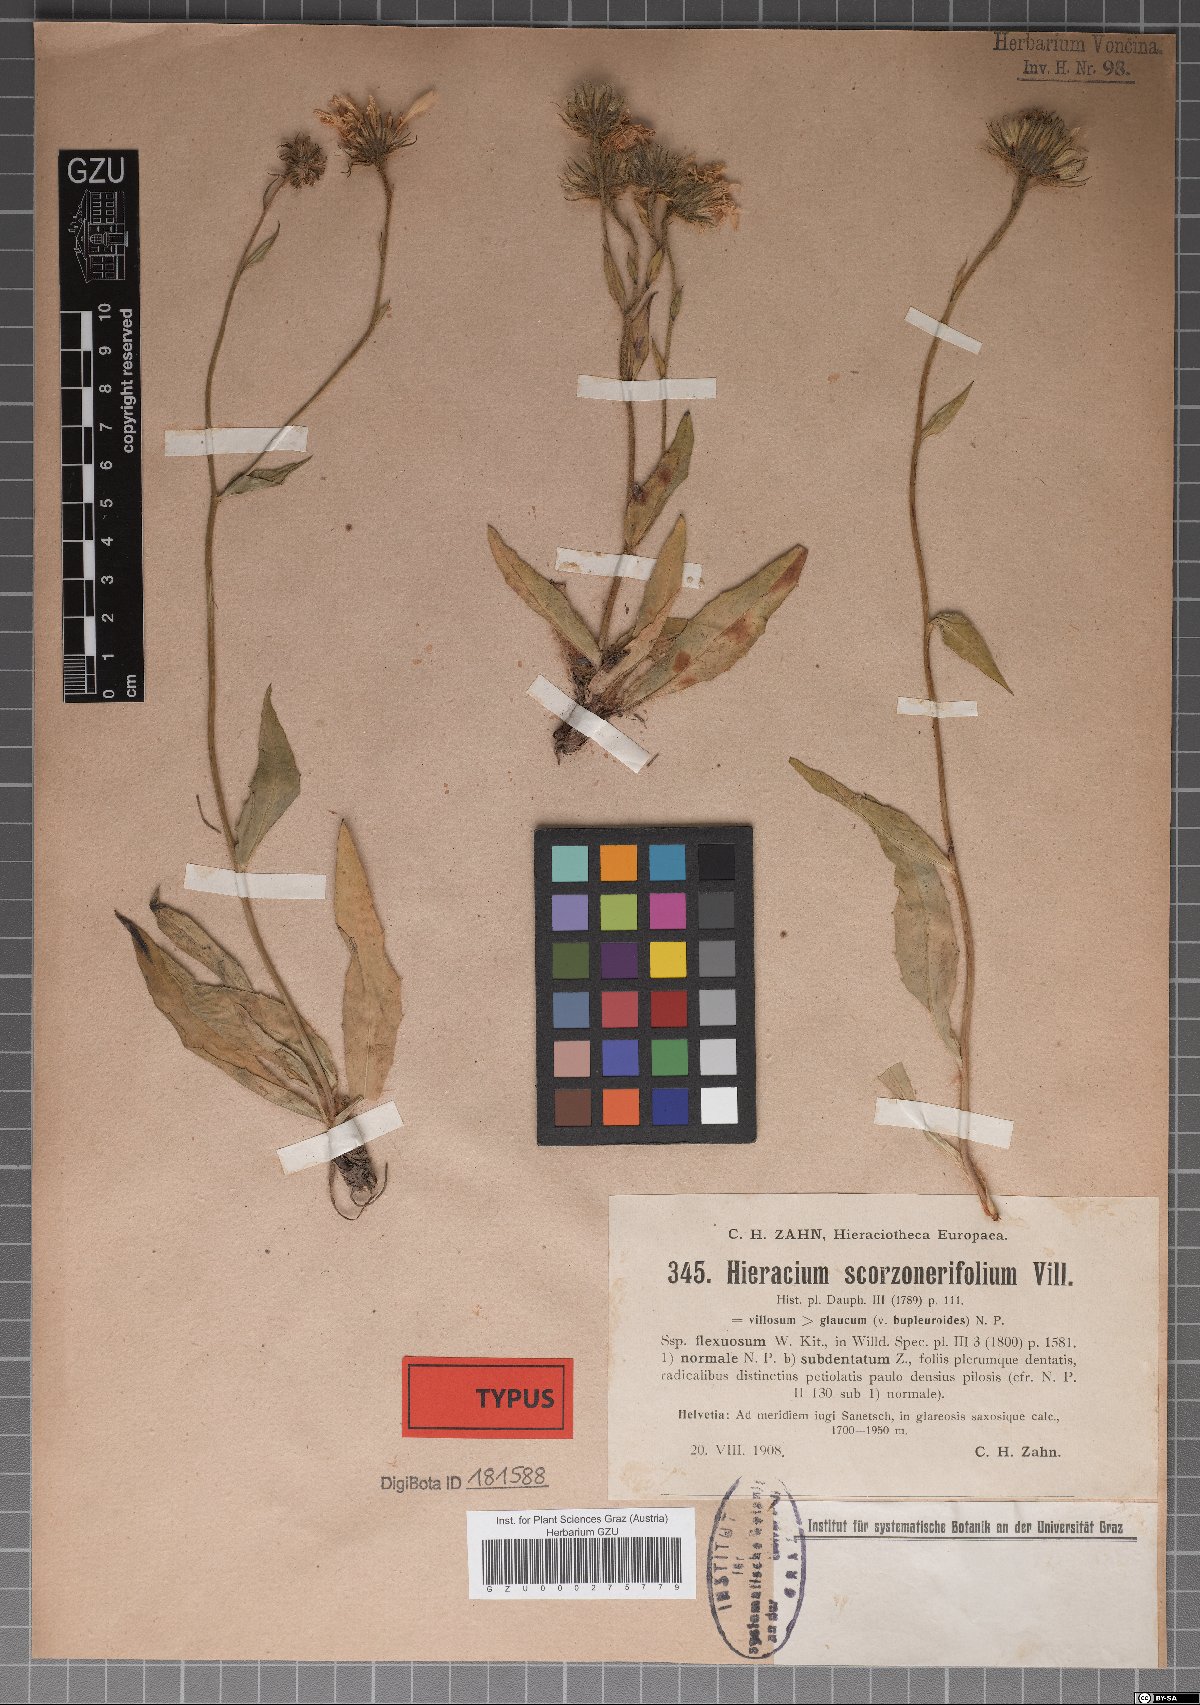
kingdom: Plantae
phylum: Tracheophyta
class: Magnoliopsida
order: Asterales
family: Asteraceae
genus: Hieracium
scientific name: Hieracium scorzonerifolium
